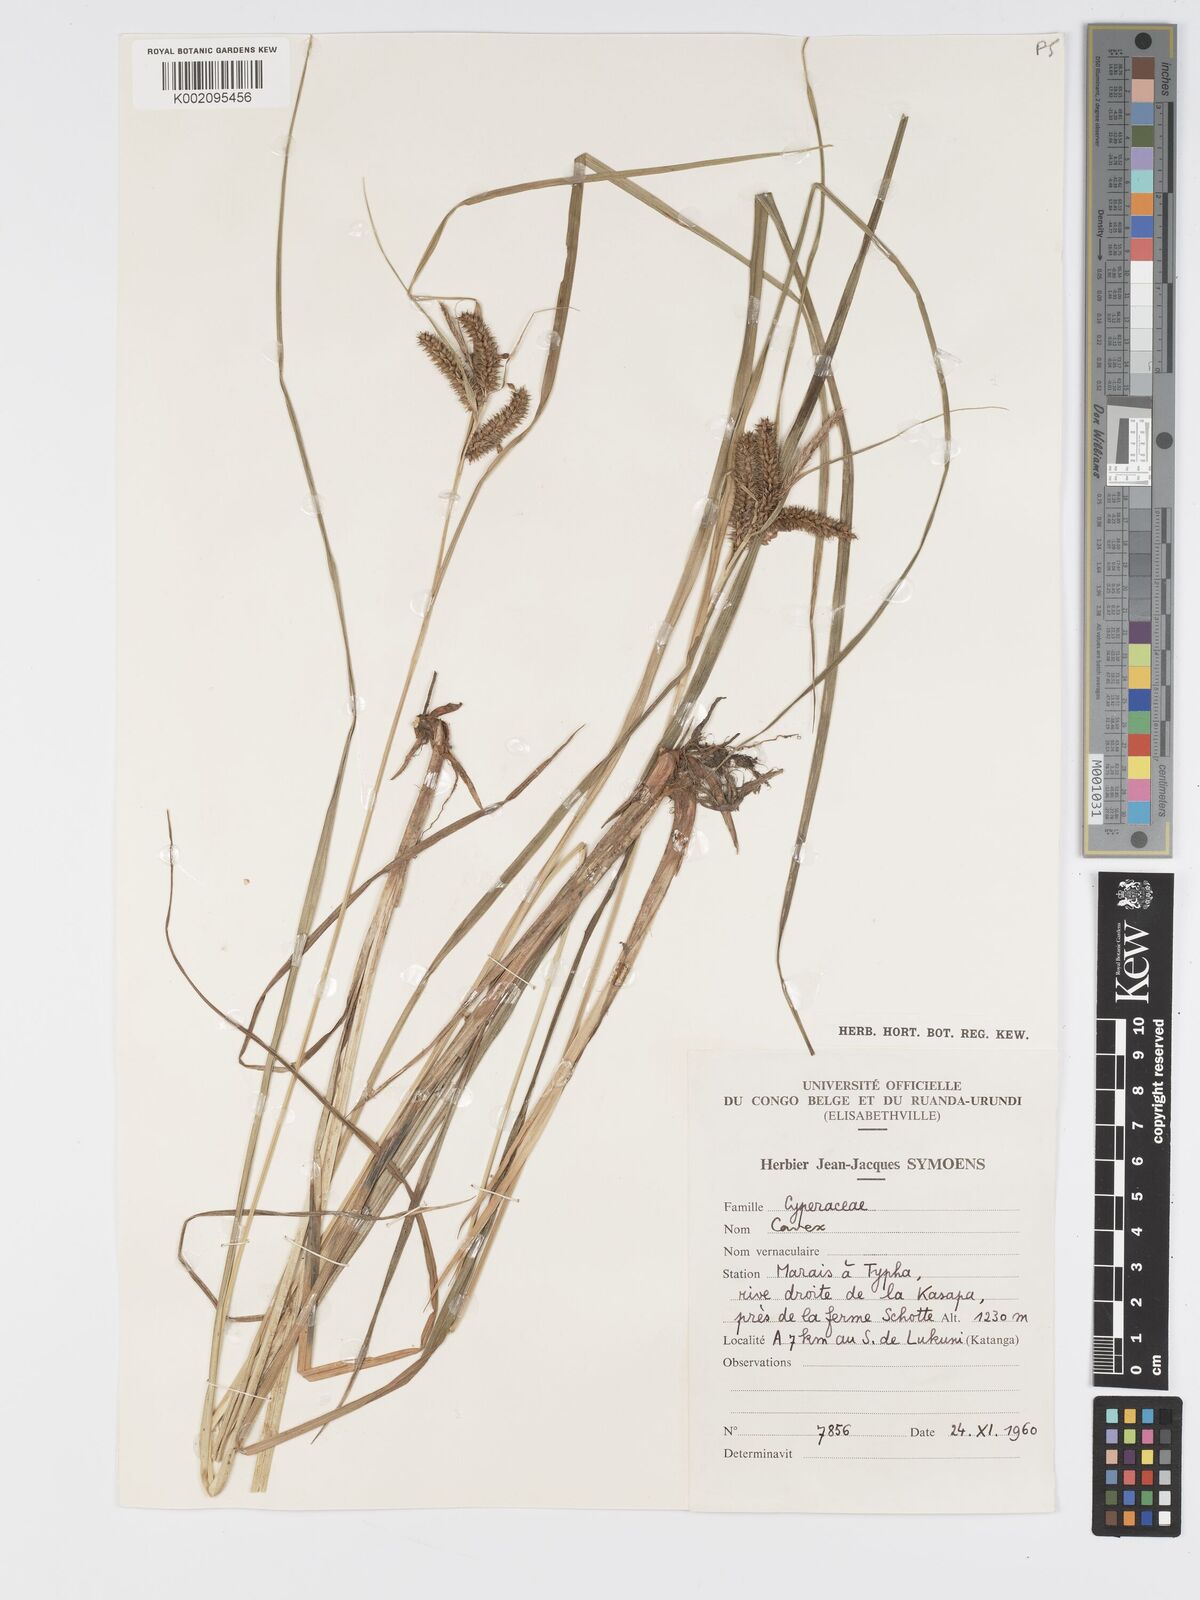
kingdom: Plantae
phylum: Tracheophyta
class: Liliopsida
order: Poales
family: Cyperaceae
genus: Carex
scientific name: Carex congolensis
